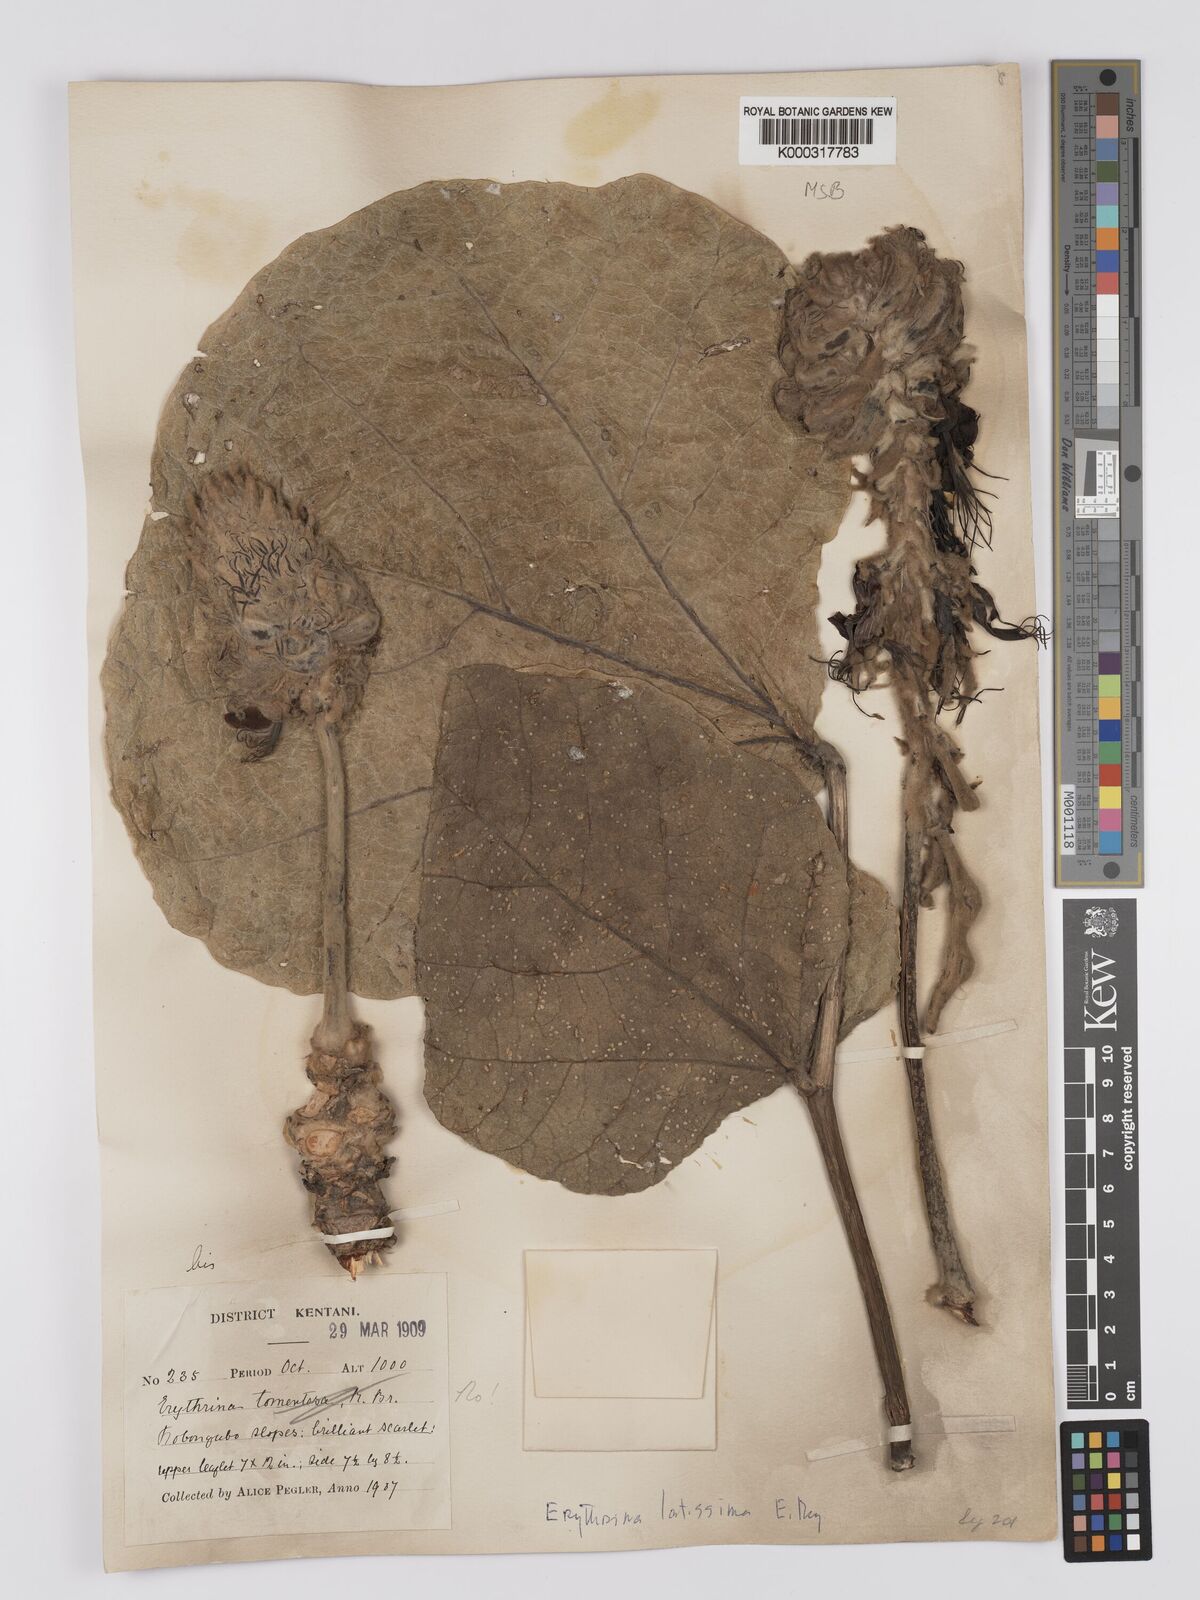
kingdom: Plantae
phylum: Tracheophyta
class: Magnoliopsida
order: Fabales
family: Fabaceae
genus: Erythrina
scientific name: Erythrina latissima
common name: Broad-leaved coral tree
